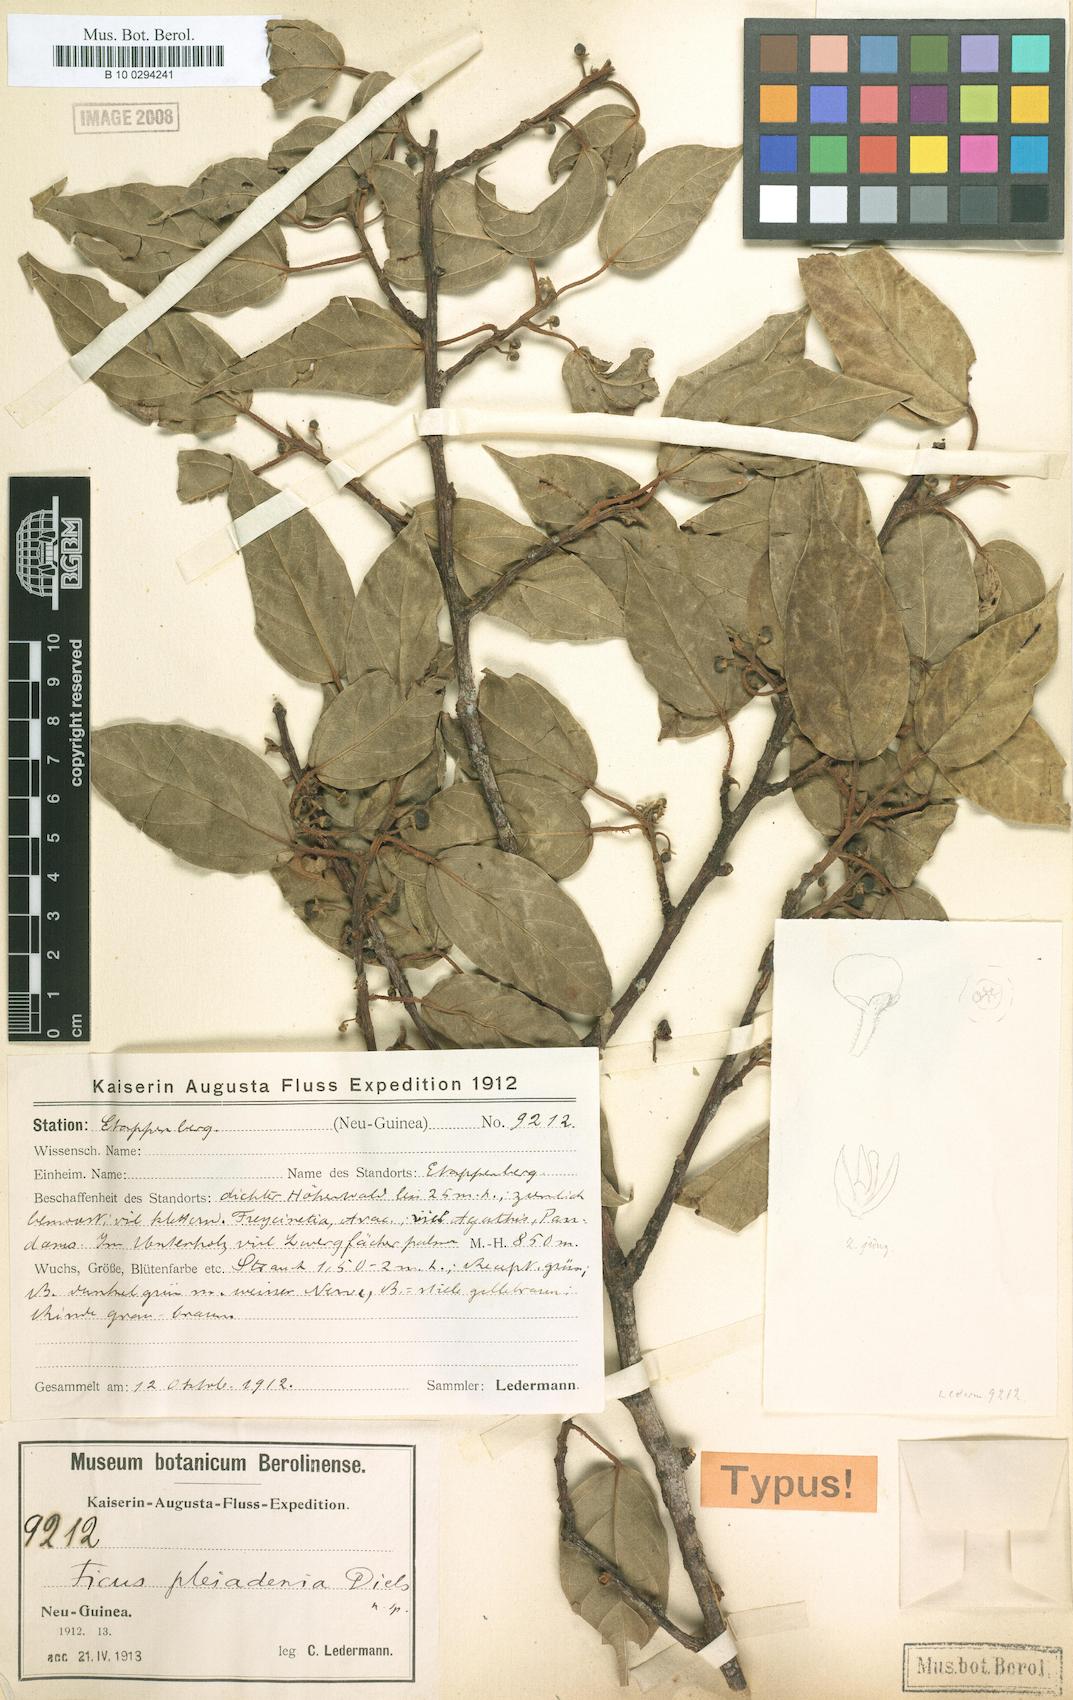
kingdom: Plantae
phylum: Tracheophyta
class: Magnoliopsida
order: Rosales
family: Moraceae
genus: Ficus
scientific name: Ficus pleiadenia
